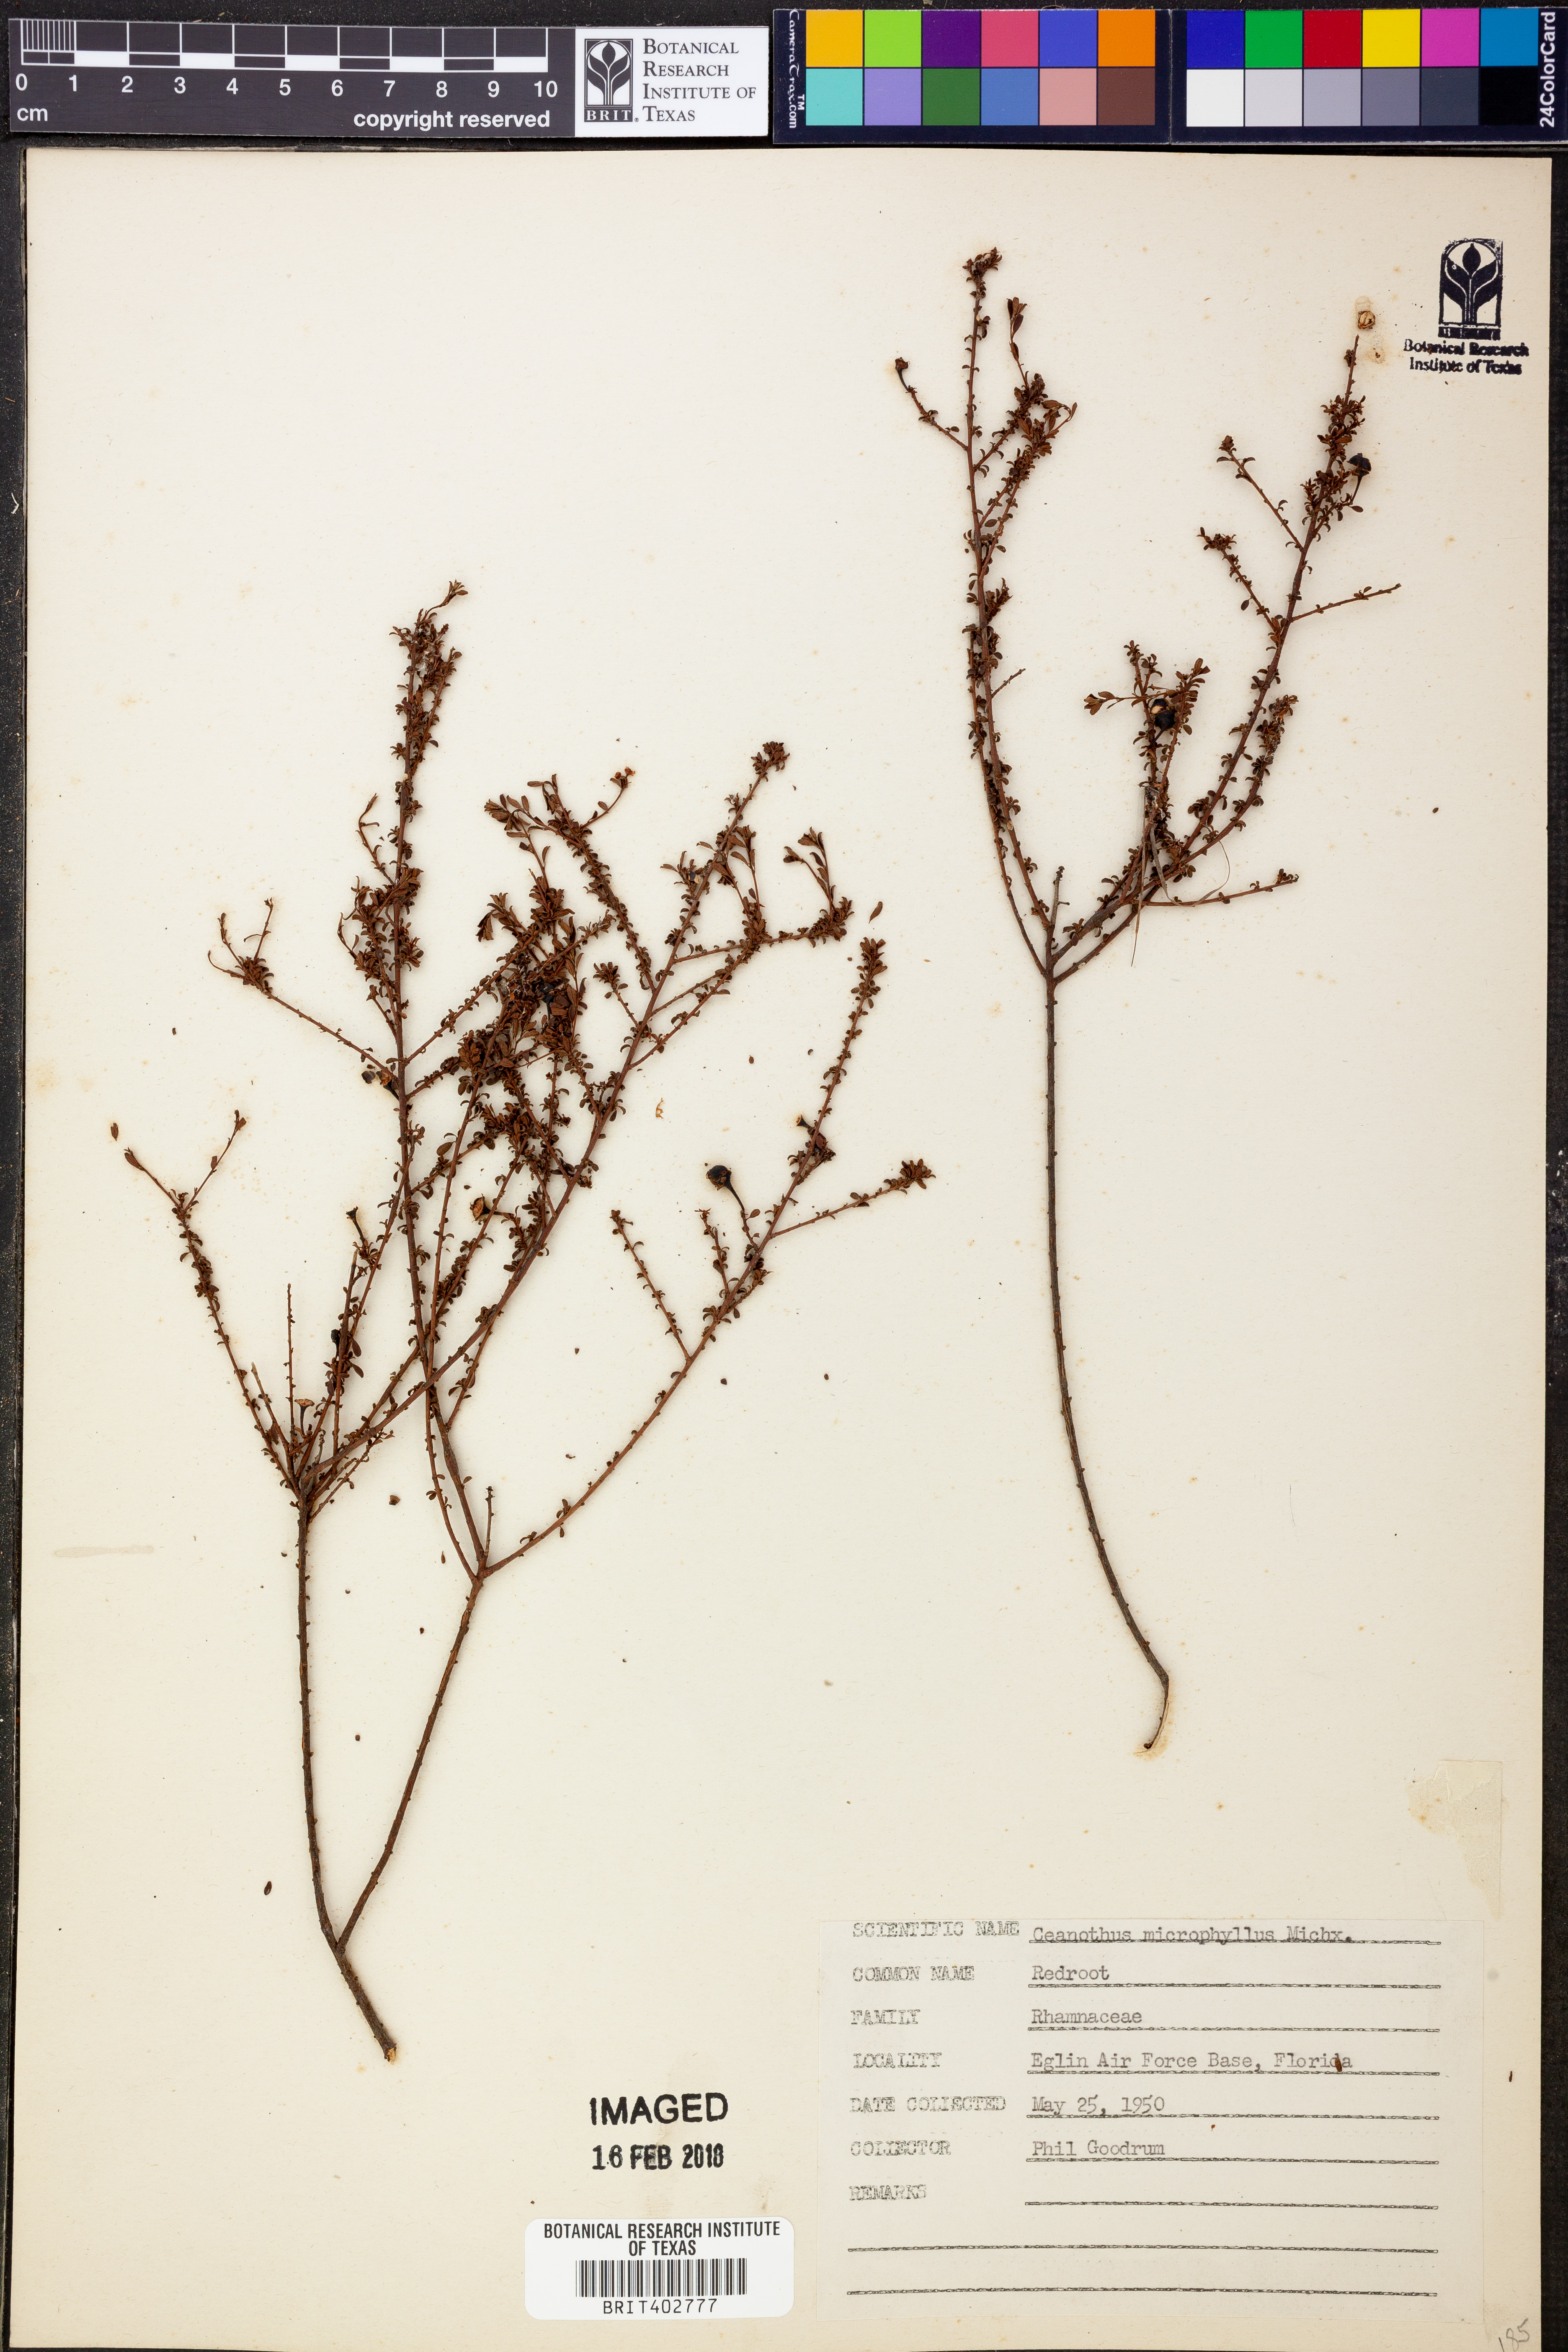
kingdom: Plantae
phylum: Tracheophyta
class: Magnoliopsida
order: Rosales
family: Rhamnaceae
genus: Ceanothus
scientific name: Ceanothus microphyllus
